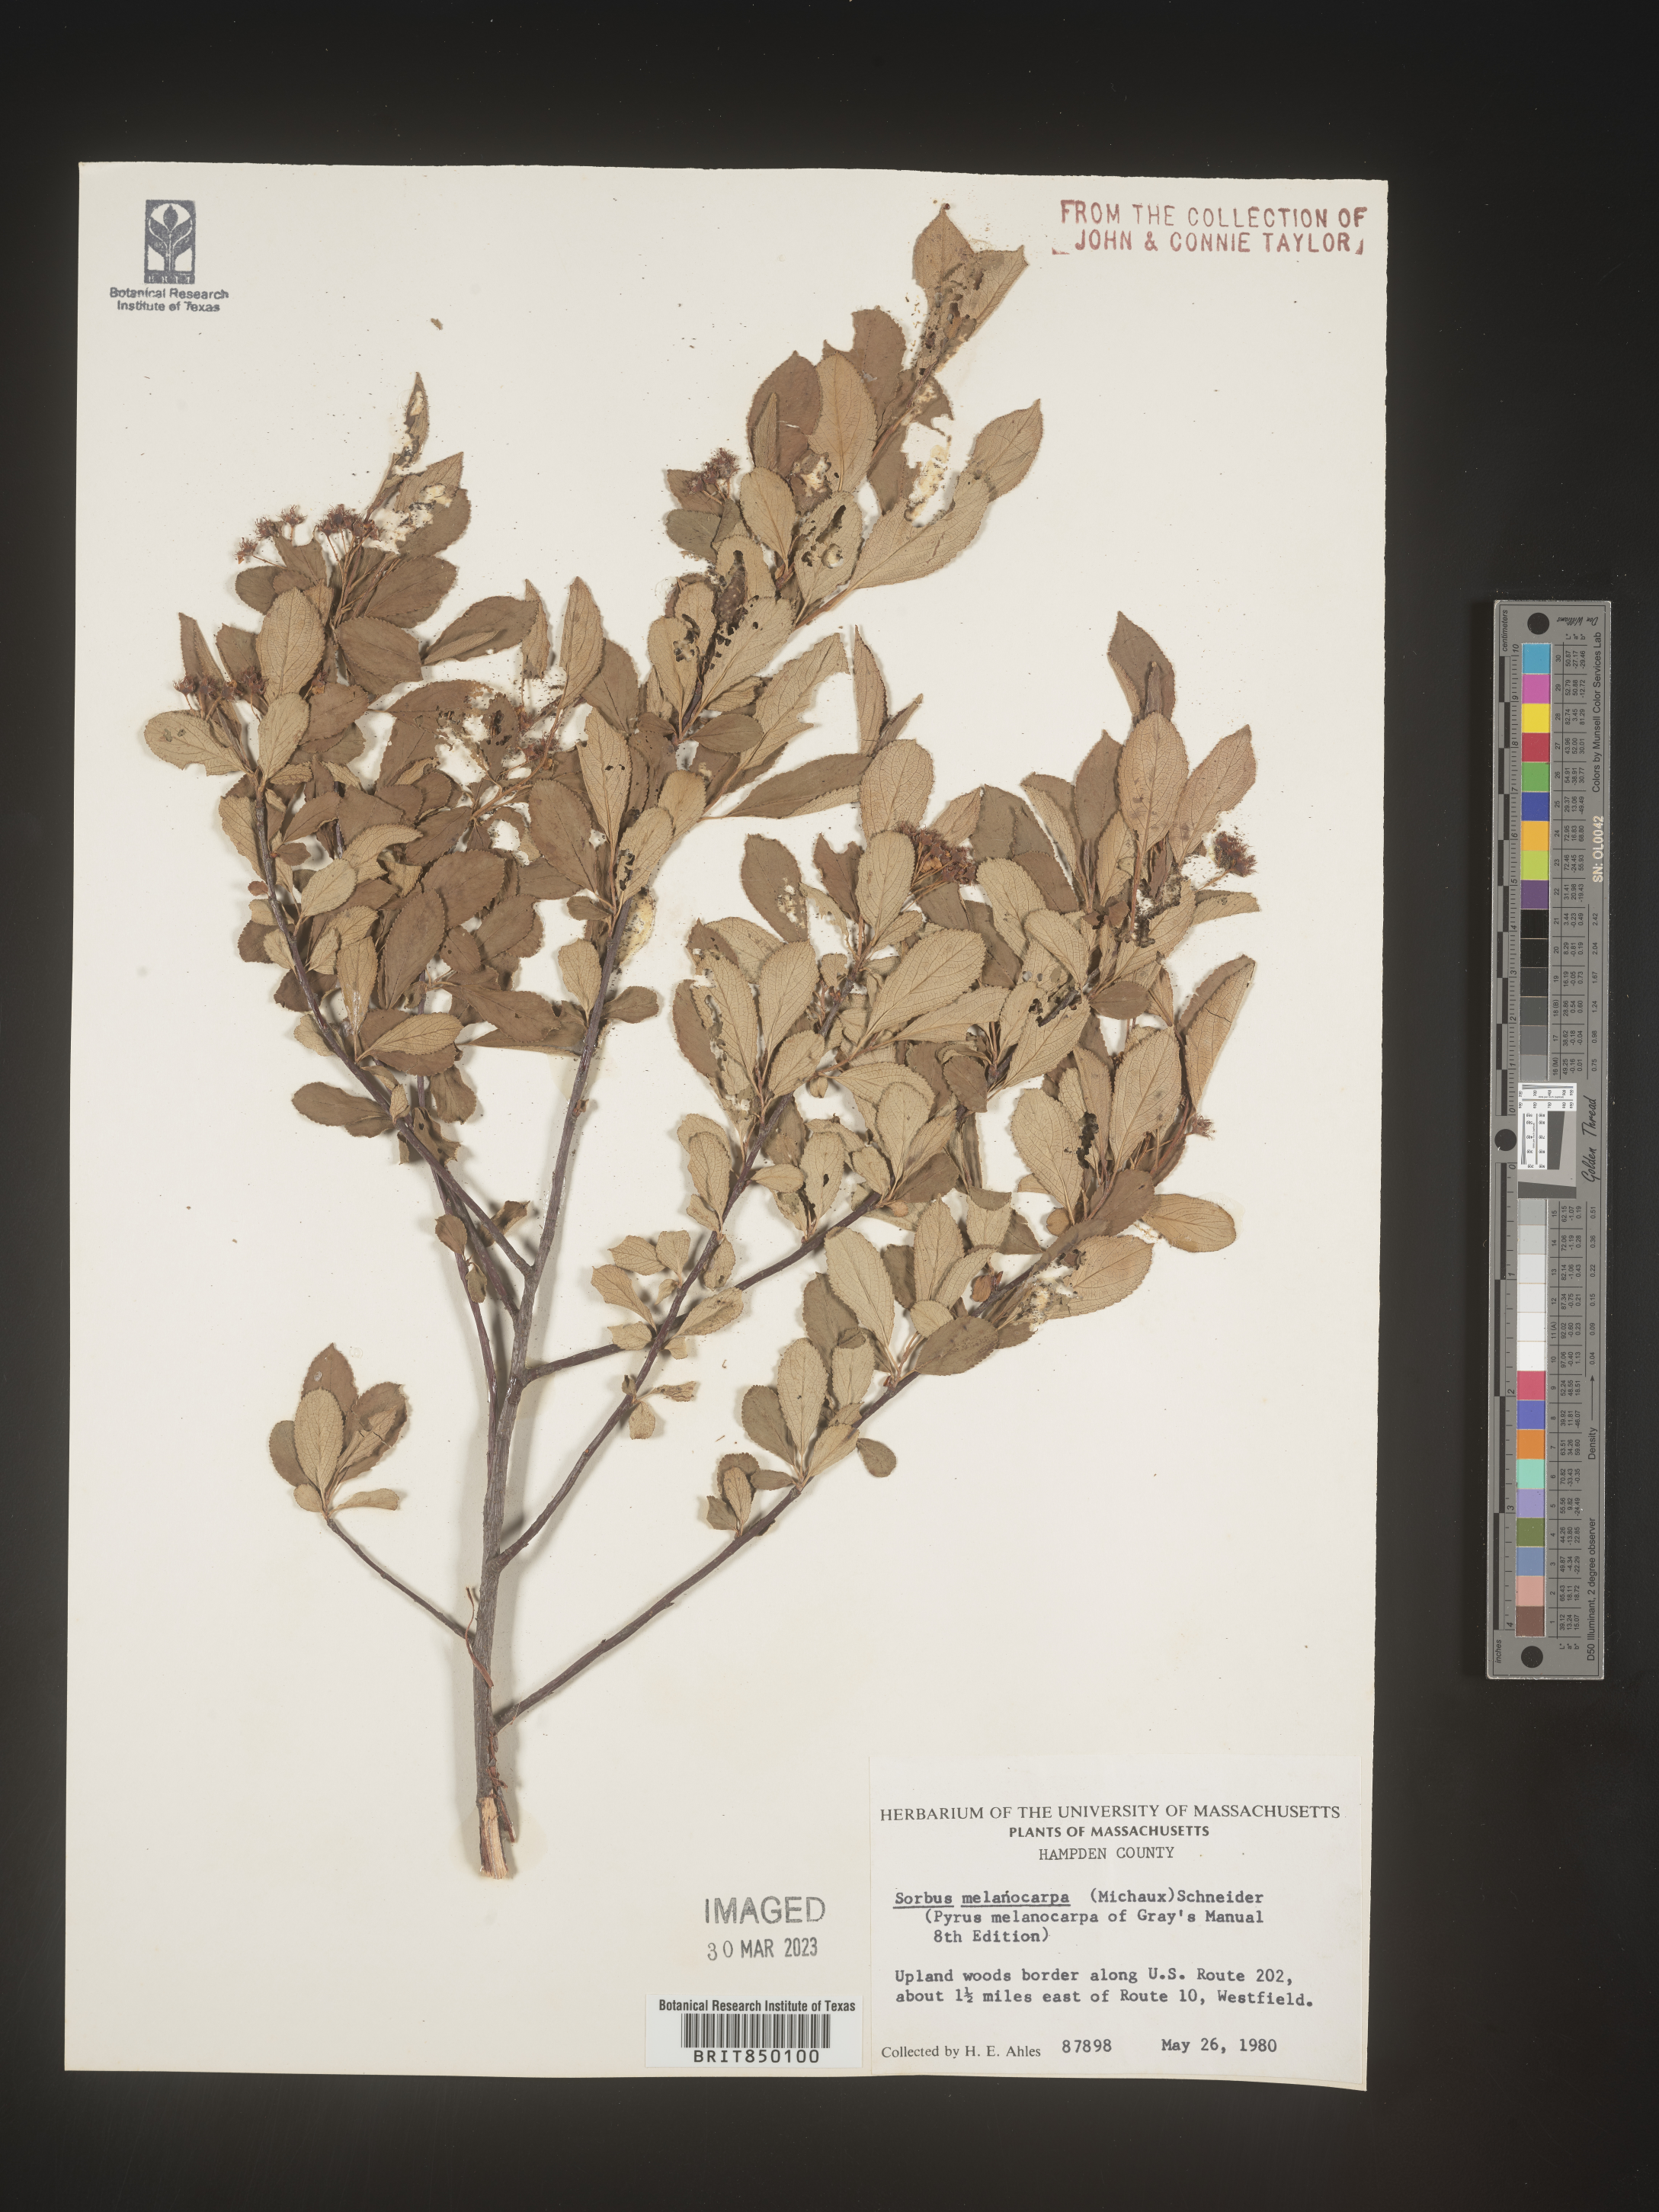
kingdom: Plantae
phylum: Tracheophyta
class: Magnoliopsida
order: Rosales
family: Rosaceae
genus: Sorbus
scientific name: Sorbus
